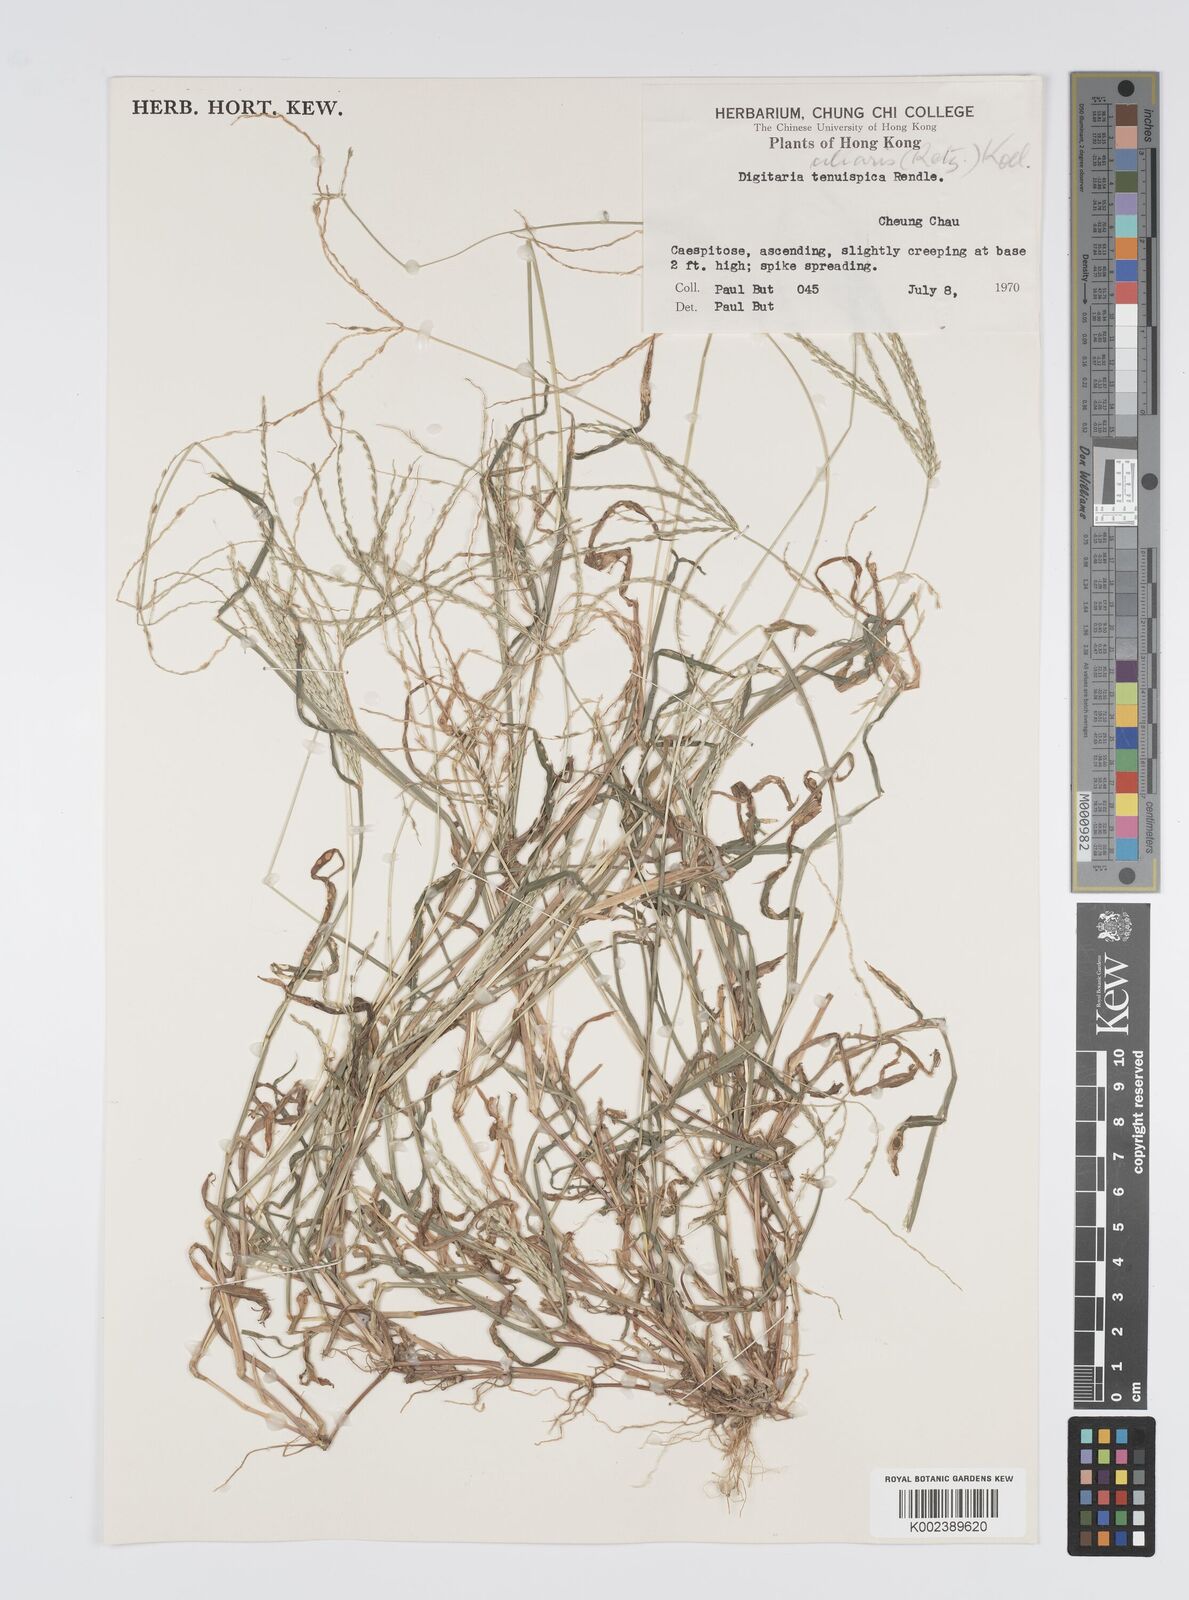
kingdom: Plantae
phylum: Tracheophyta
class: Liliopsida
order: Poales
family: Poaceae
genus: Digitaria
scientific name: Digitaria ciliaris
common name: Tropical finger-grass
